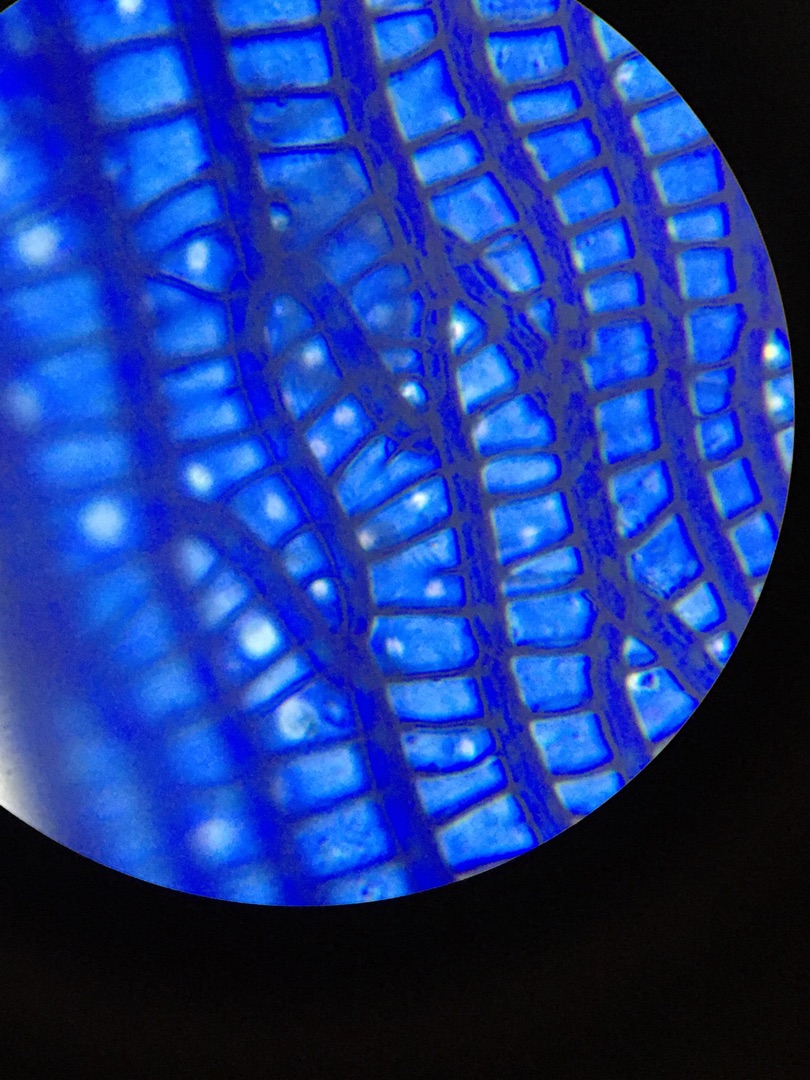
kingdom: Plantae
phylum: Bryophyta
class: Sphagnopsida
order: Sphagnales
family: Sphagnaceae
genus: Sphagnum
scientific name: Sphagnum obtusum
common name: Småporet tørvemos
